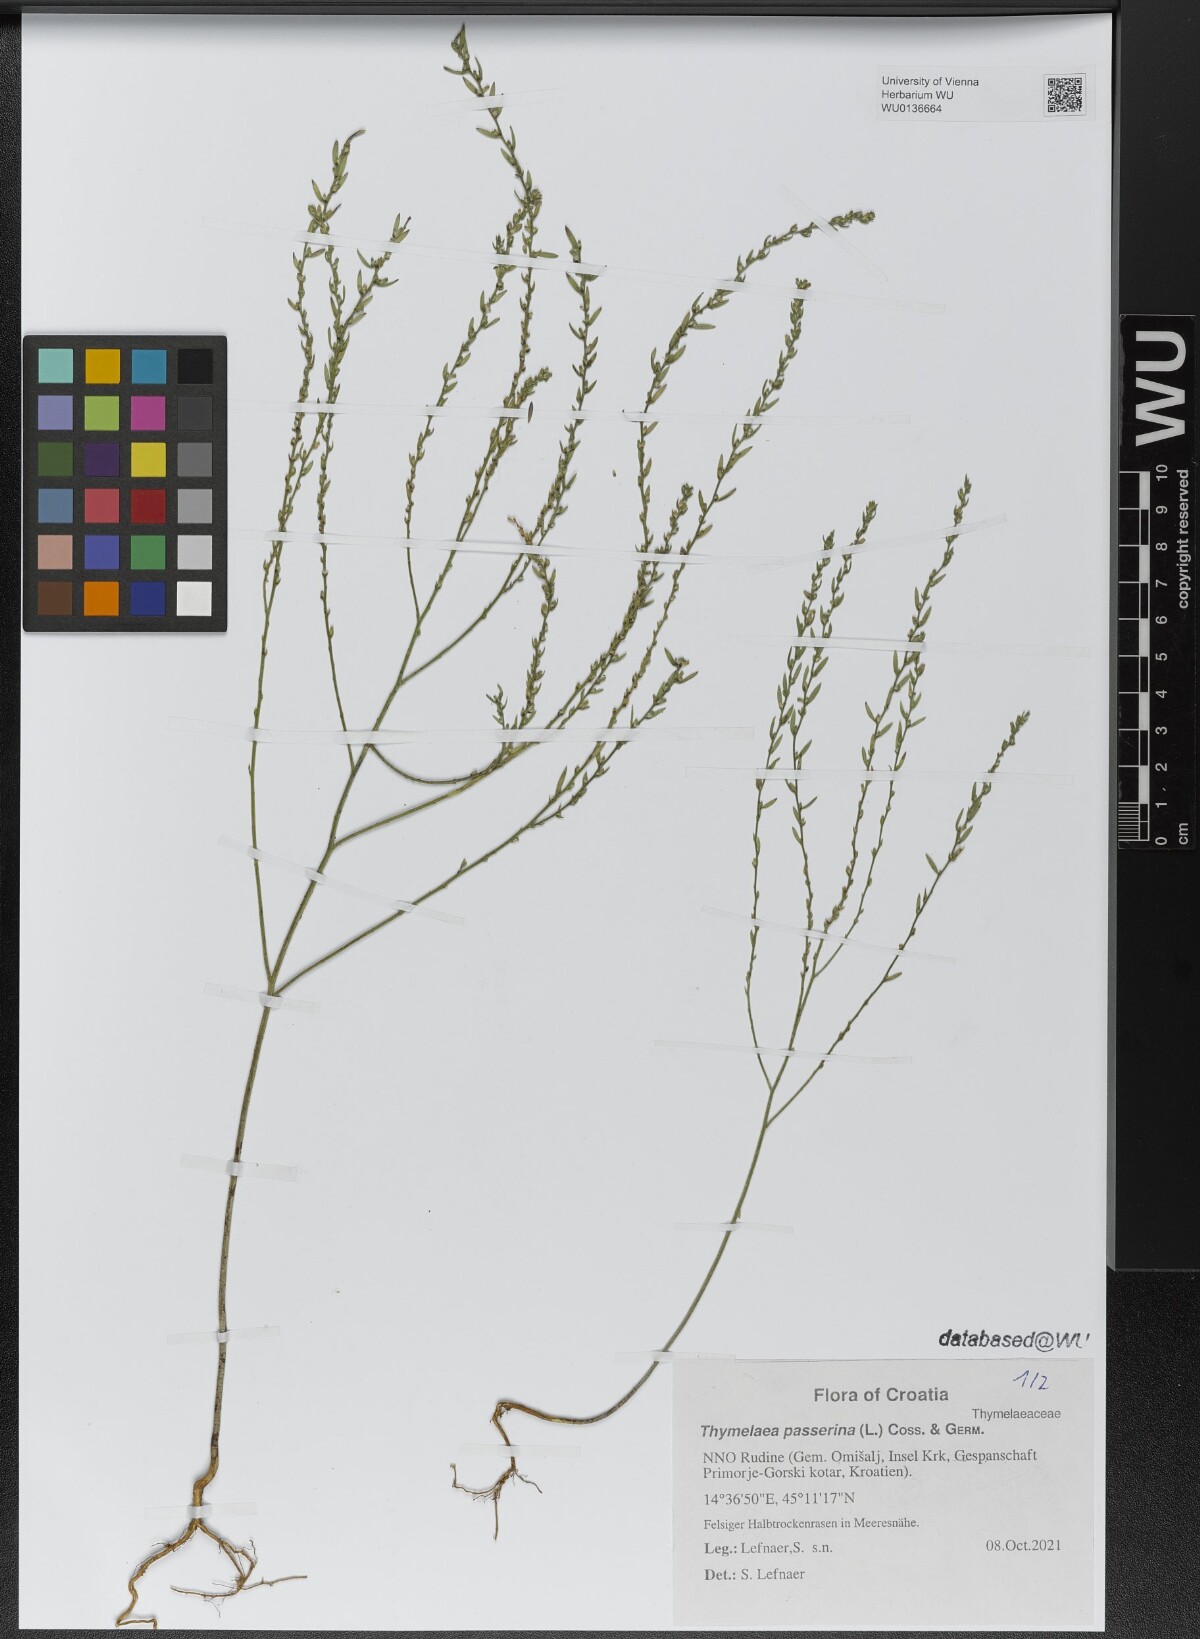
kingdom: Plantae
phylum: Tracheophyta
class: Magnoliopsida
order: Malvales
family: Thymelaeaceae
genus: Thymelaea
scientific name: Thymelaea passerina
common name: Annual thymelaea
